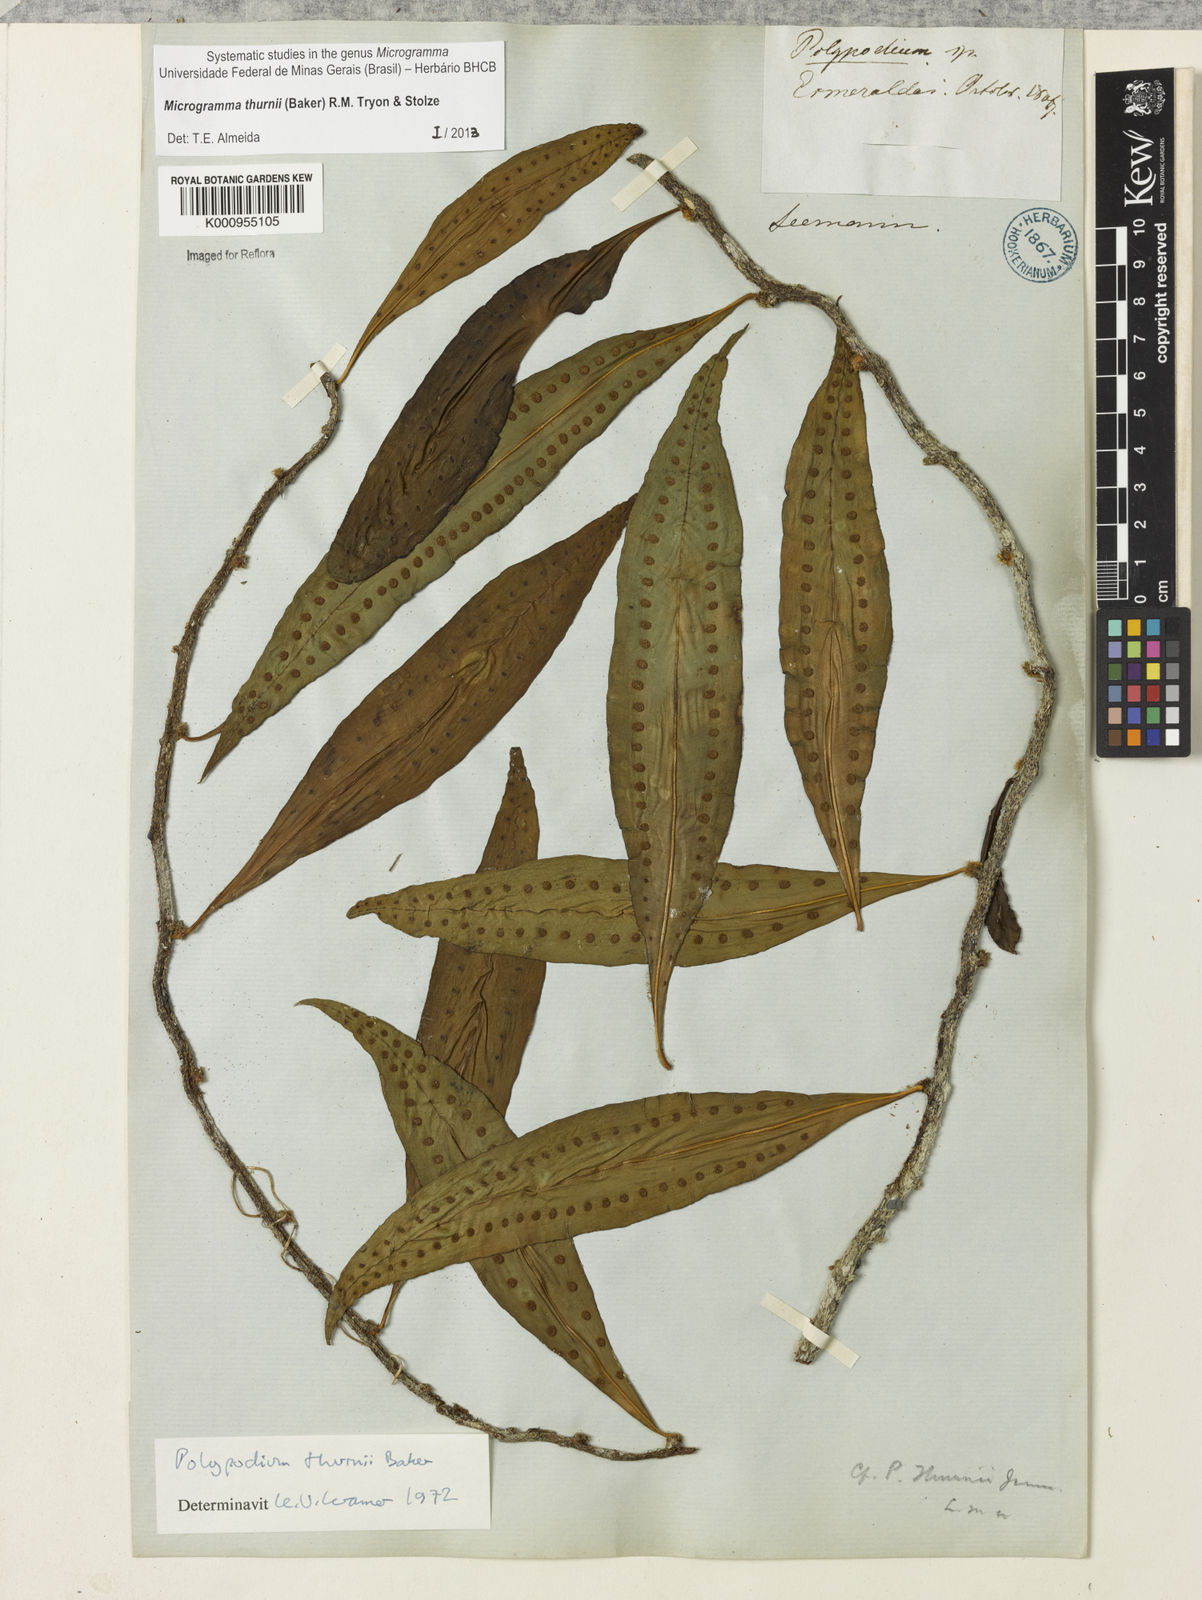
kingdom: Plantae
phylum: Tracheophyta
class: Polypodiopsida
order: Polypodiales
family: Polypodiaceae
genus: Microgramma
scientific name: Microgramma thurnii
